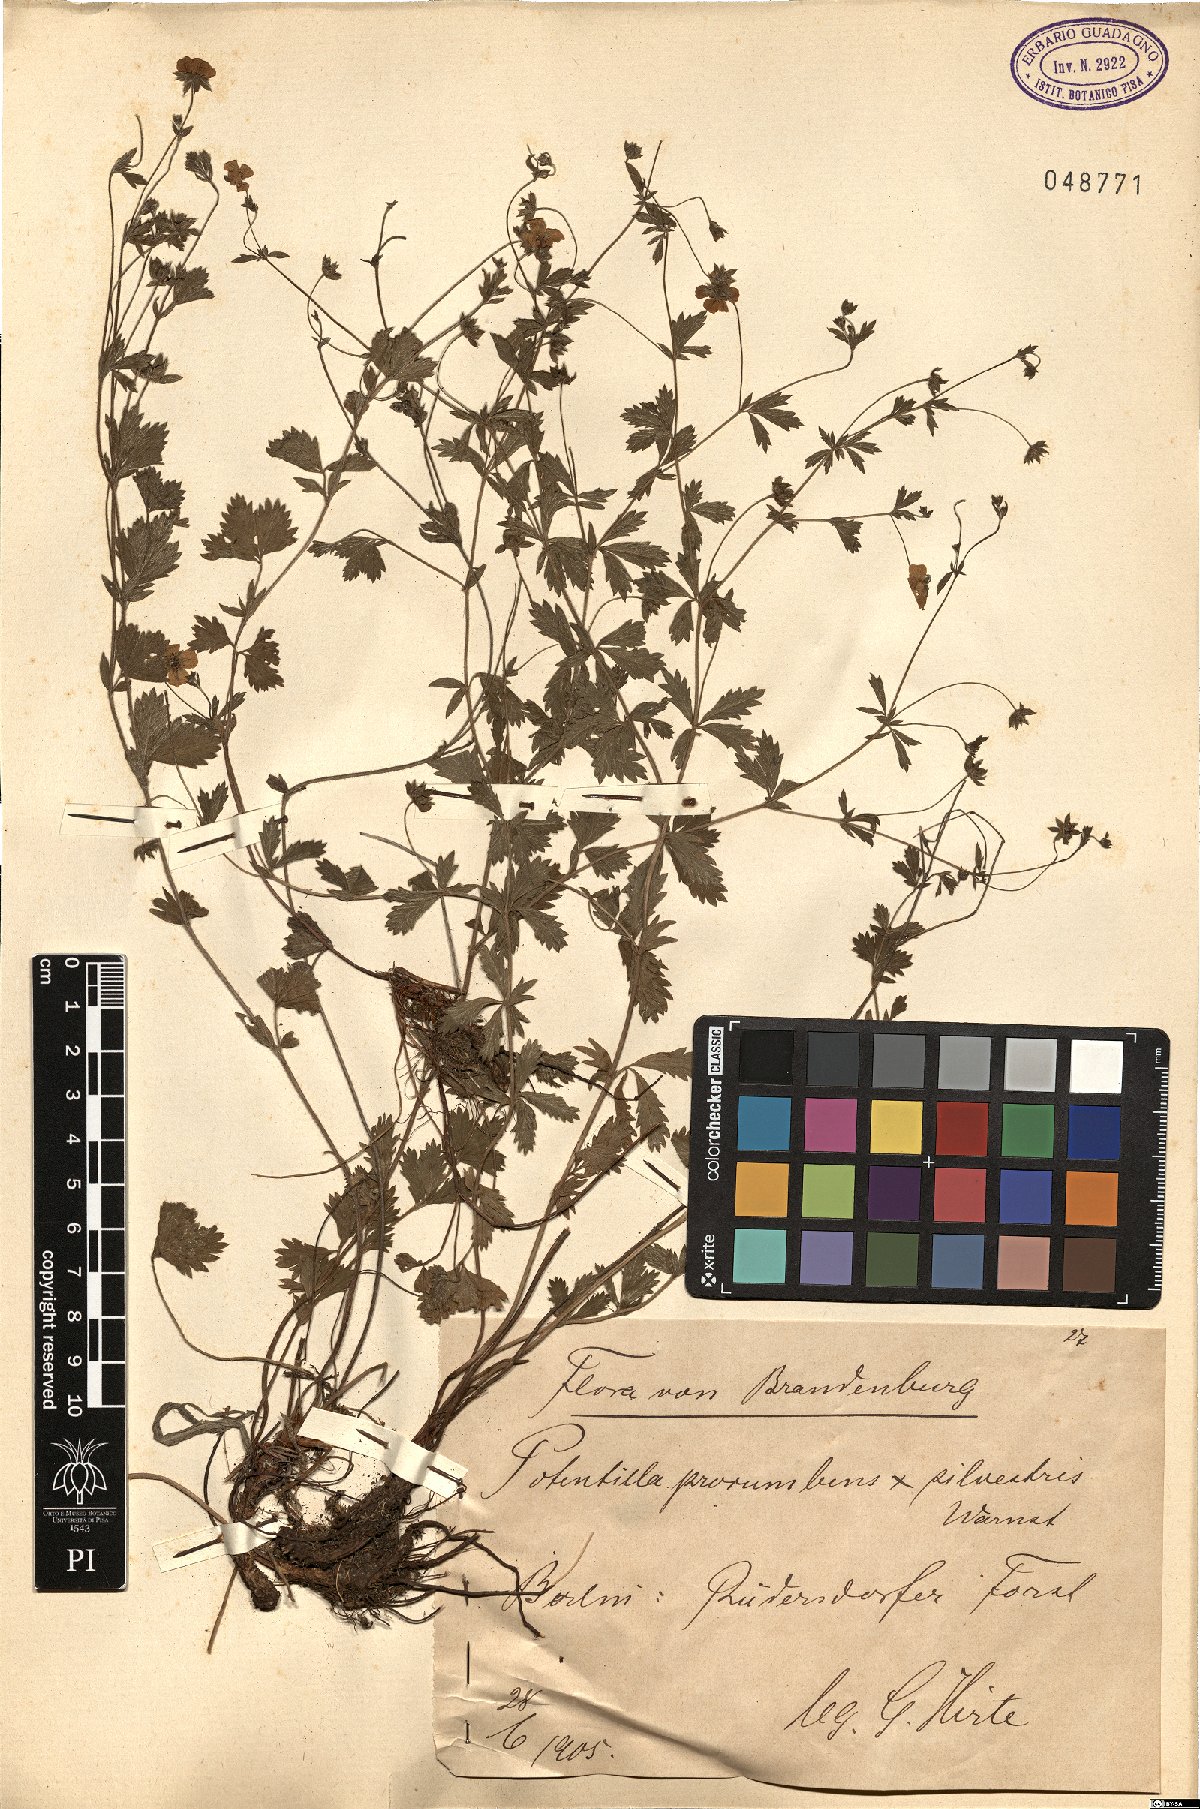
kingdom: Plantae
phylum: Tracheophyta
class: Magnoliopsida
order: Rosales
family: Rosaceae
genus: Potentilla
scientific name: Potentilla
